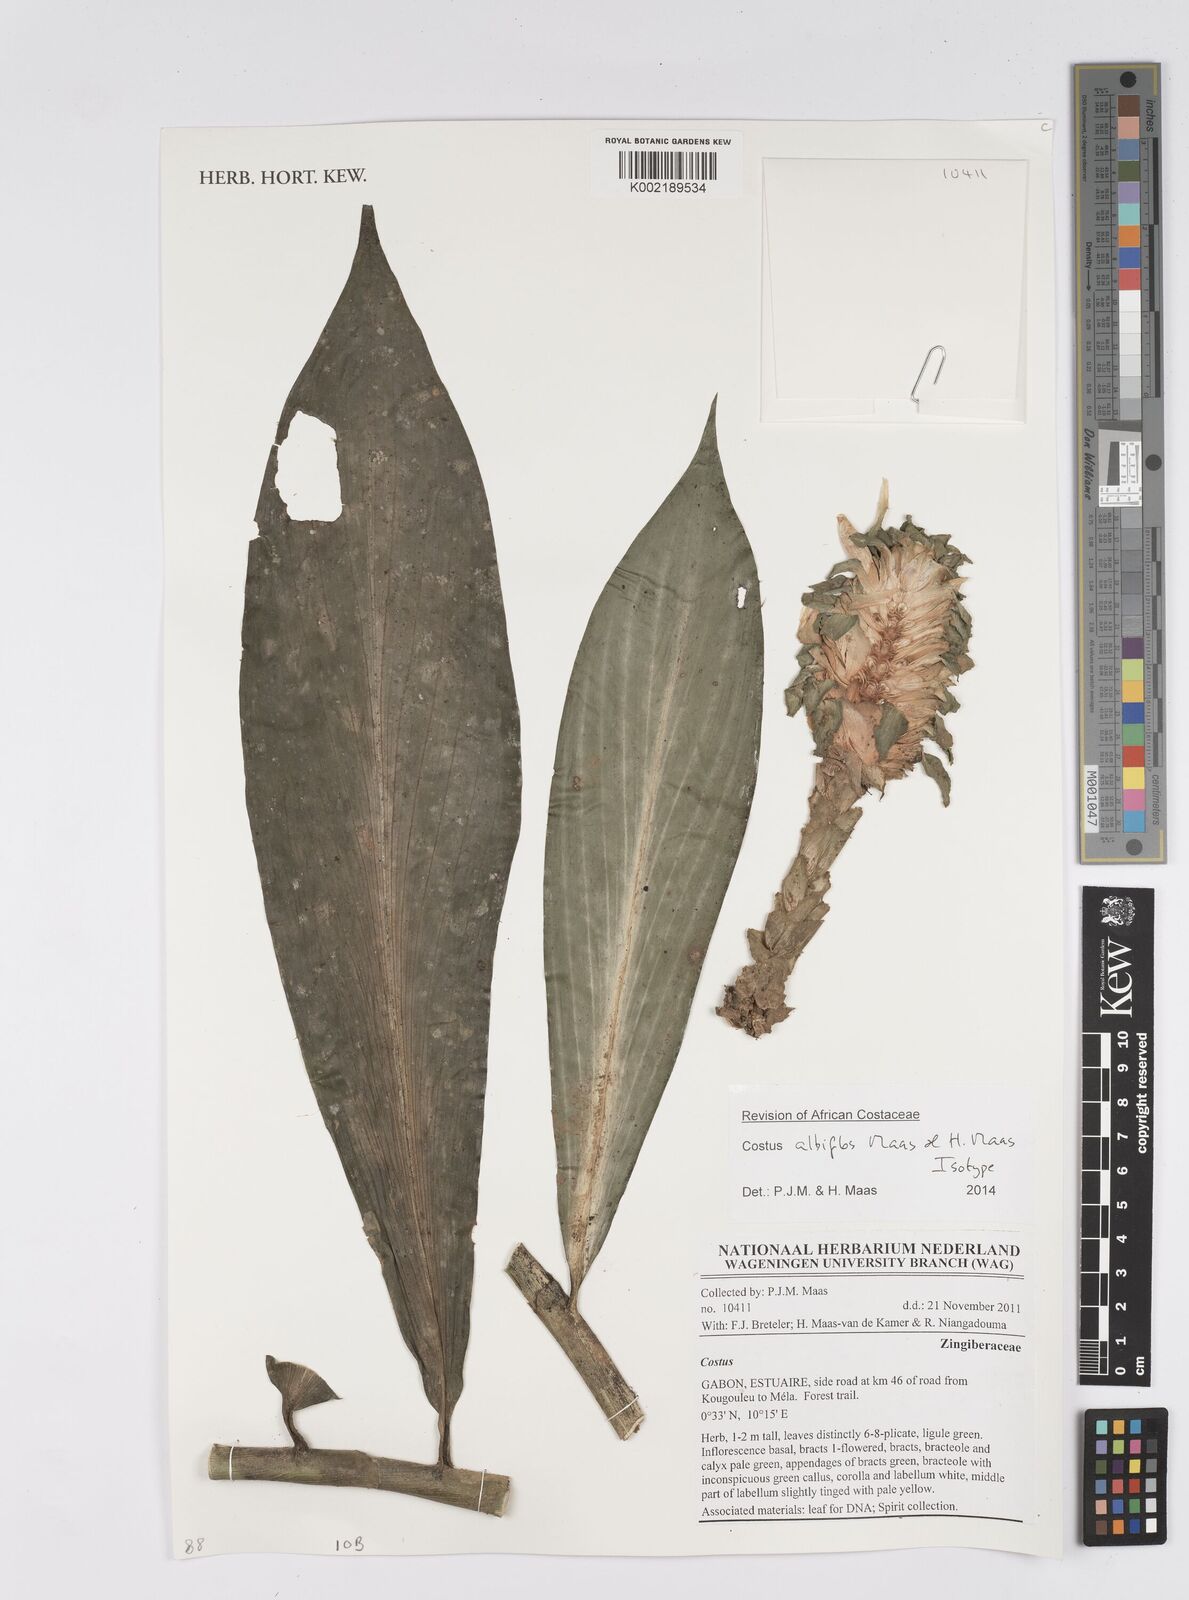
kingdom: Plantae
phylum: Tracheophyta
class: Liliopsida
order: Zingiberales
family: Costaceae
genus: Costus
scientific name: Costus albiflos
